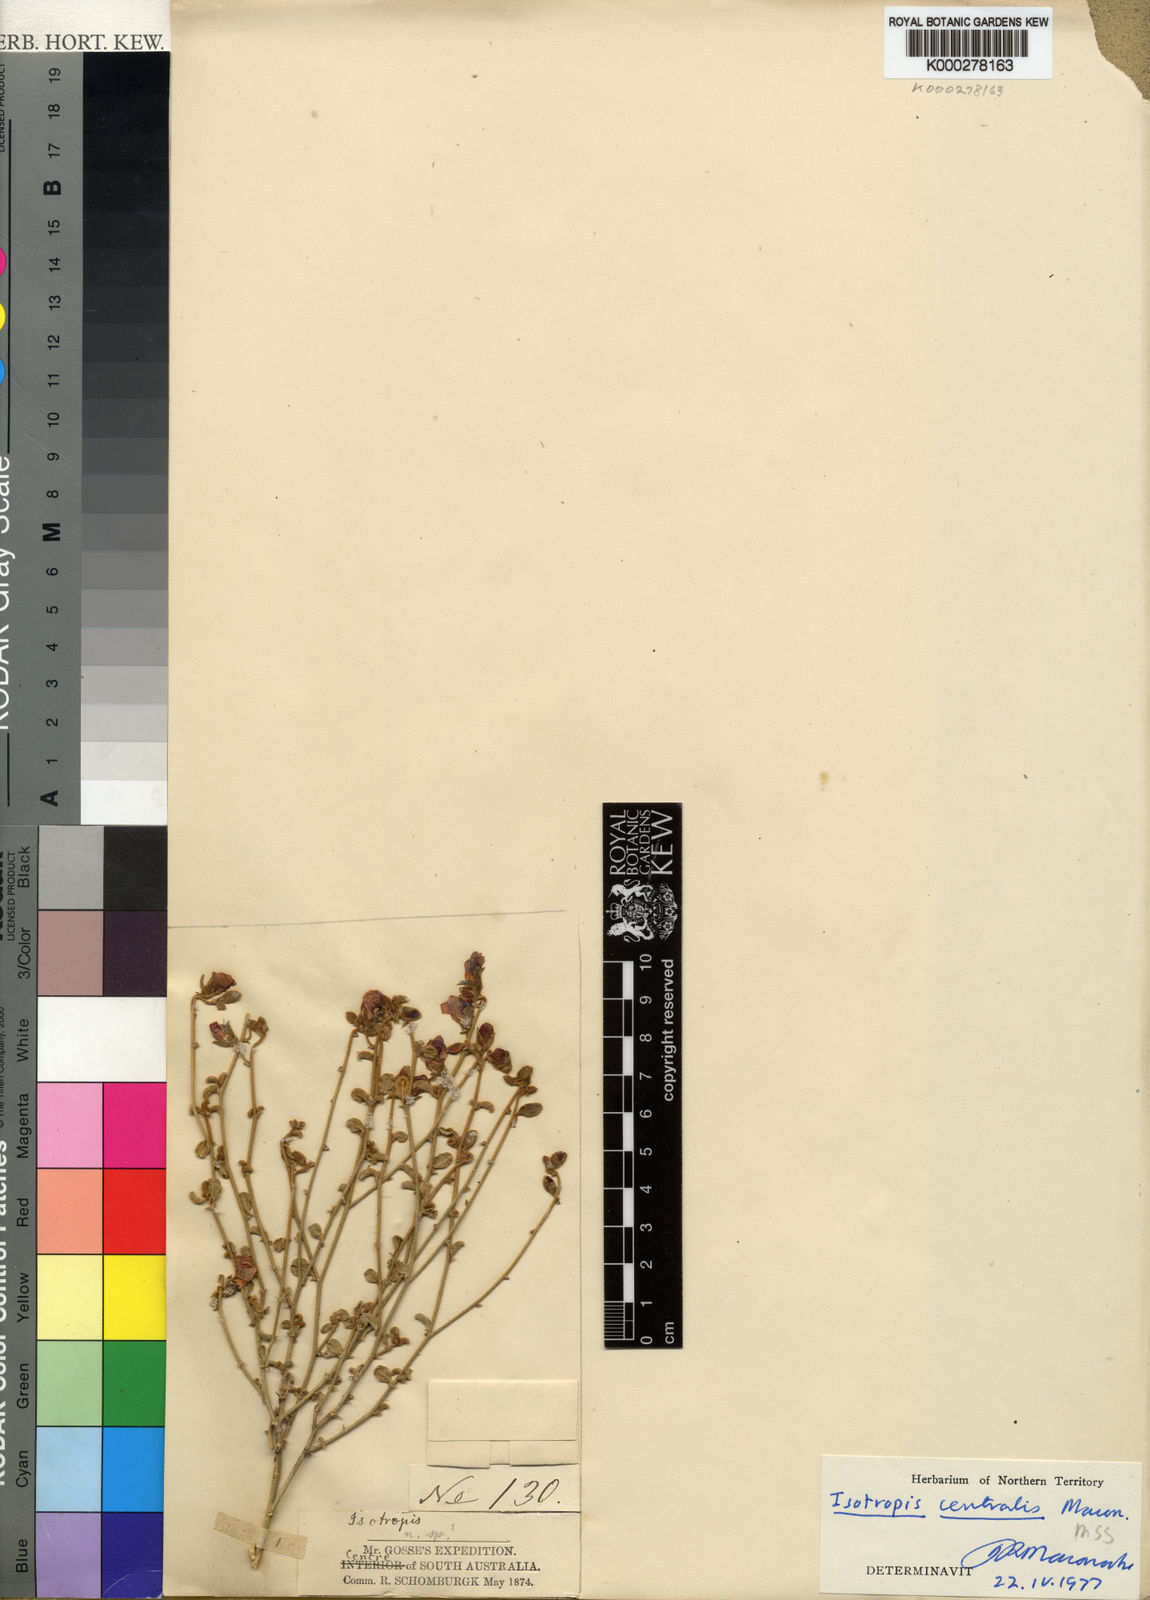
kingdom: Plantae
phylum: Tracheophyta
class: Magnoliopsida
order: Fabales
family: Fabaceae
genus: Isotropis
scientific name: Isotropis centralis
